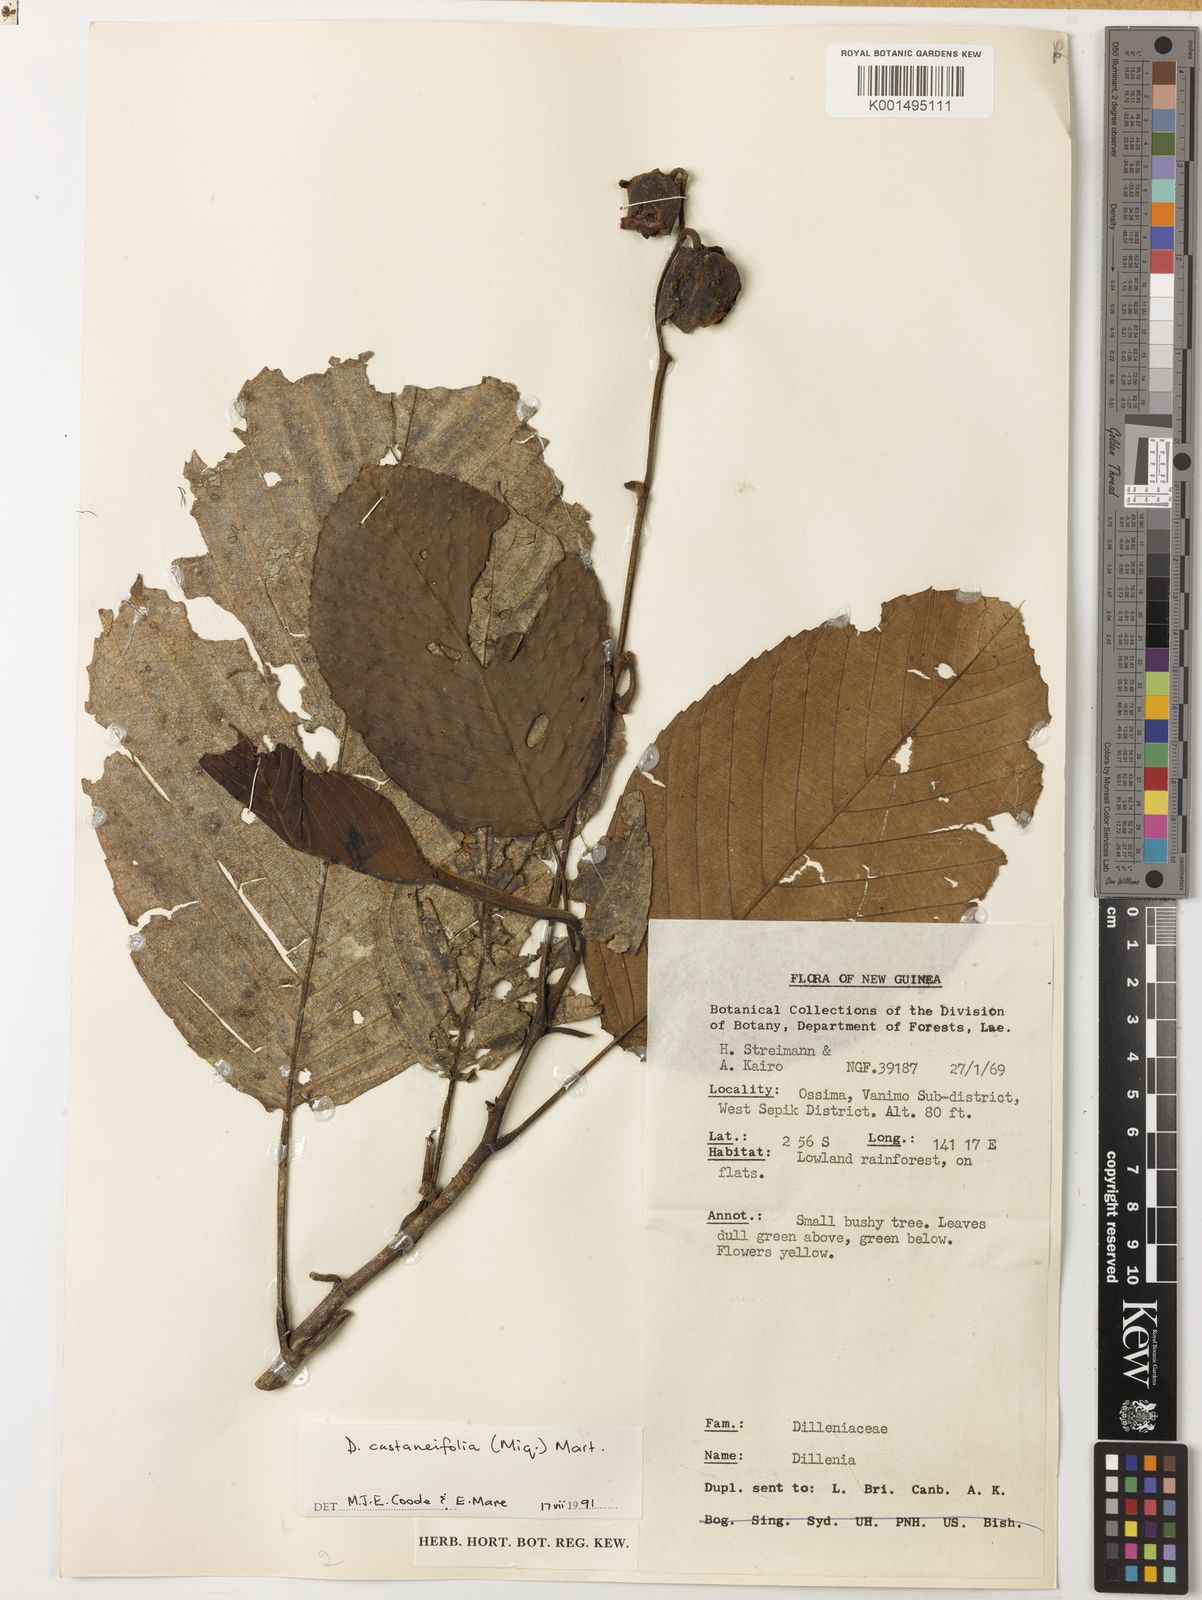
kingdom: Plantae
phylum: Tracheophyta
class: Magnoliopsida
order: Dilleniales
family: Dilleniaceae
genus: Dillenia
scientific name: Dillenia castaneifolia
